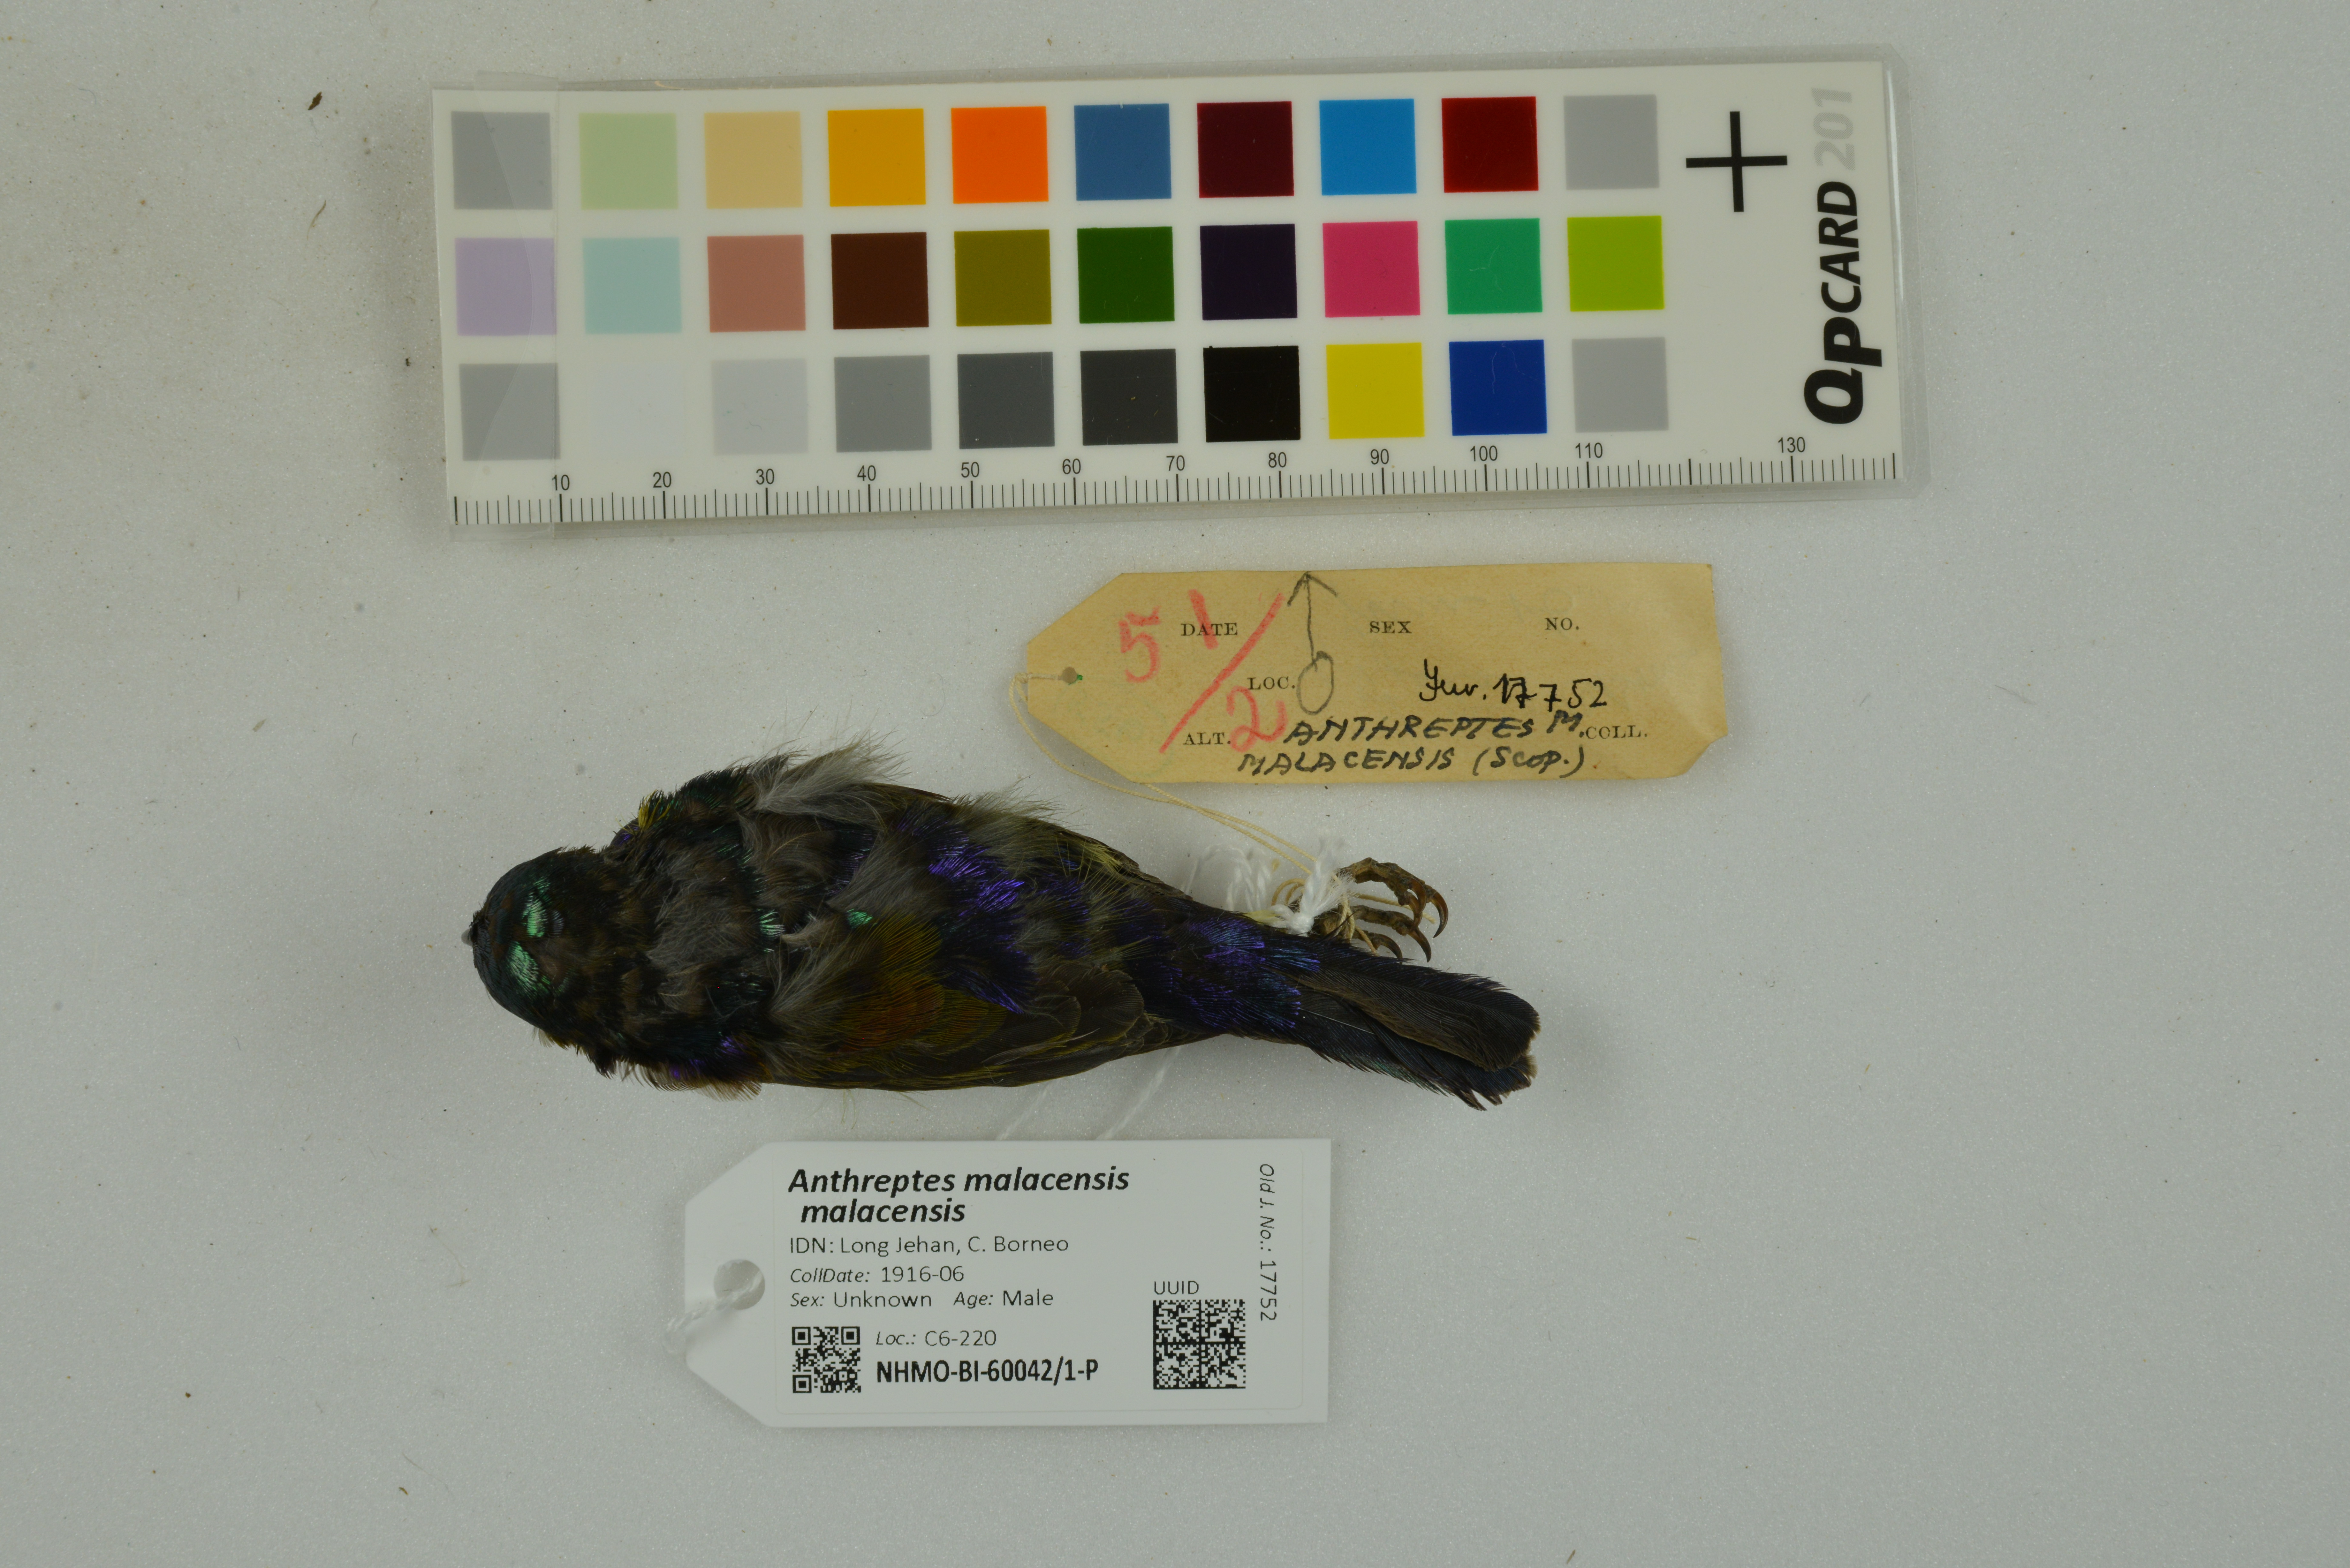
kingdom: Animalia
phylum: Chordata
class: Aves
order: Passeriformes
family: Nectariniidae
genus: Anthreptes
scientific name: Anthreptes malacensis
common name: Brown-throated sunbird
